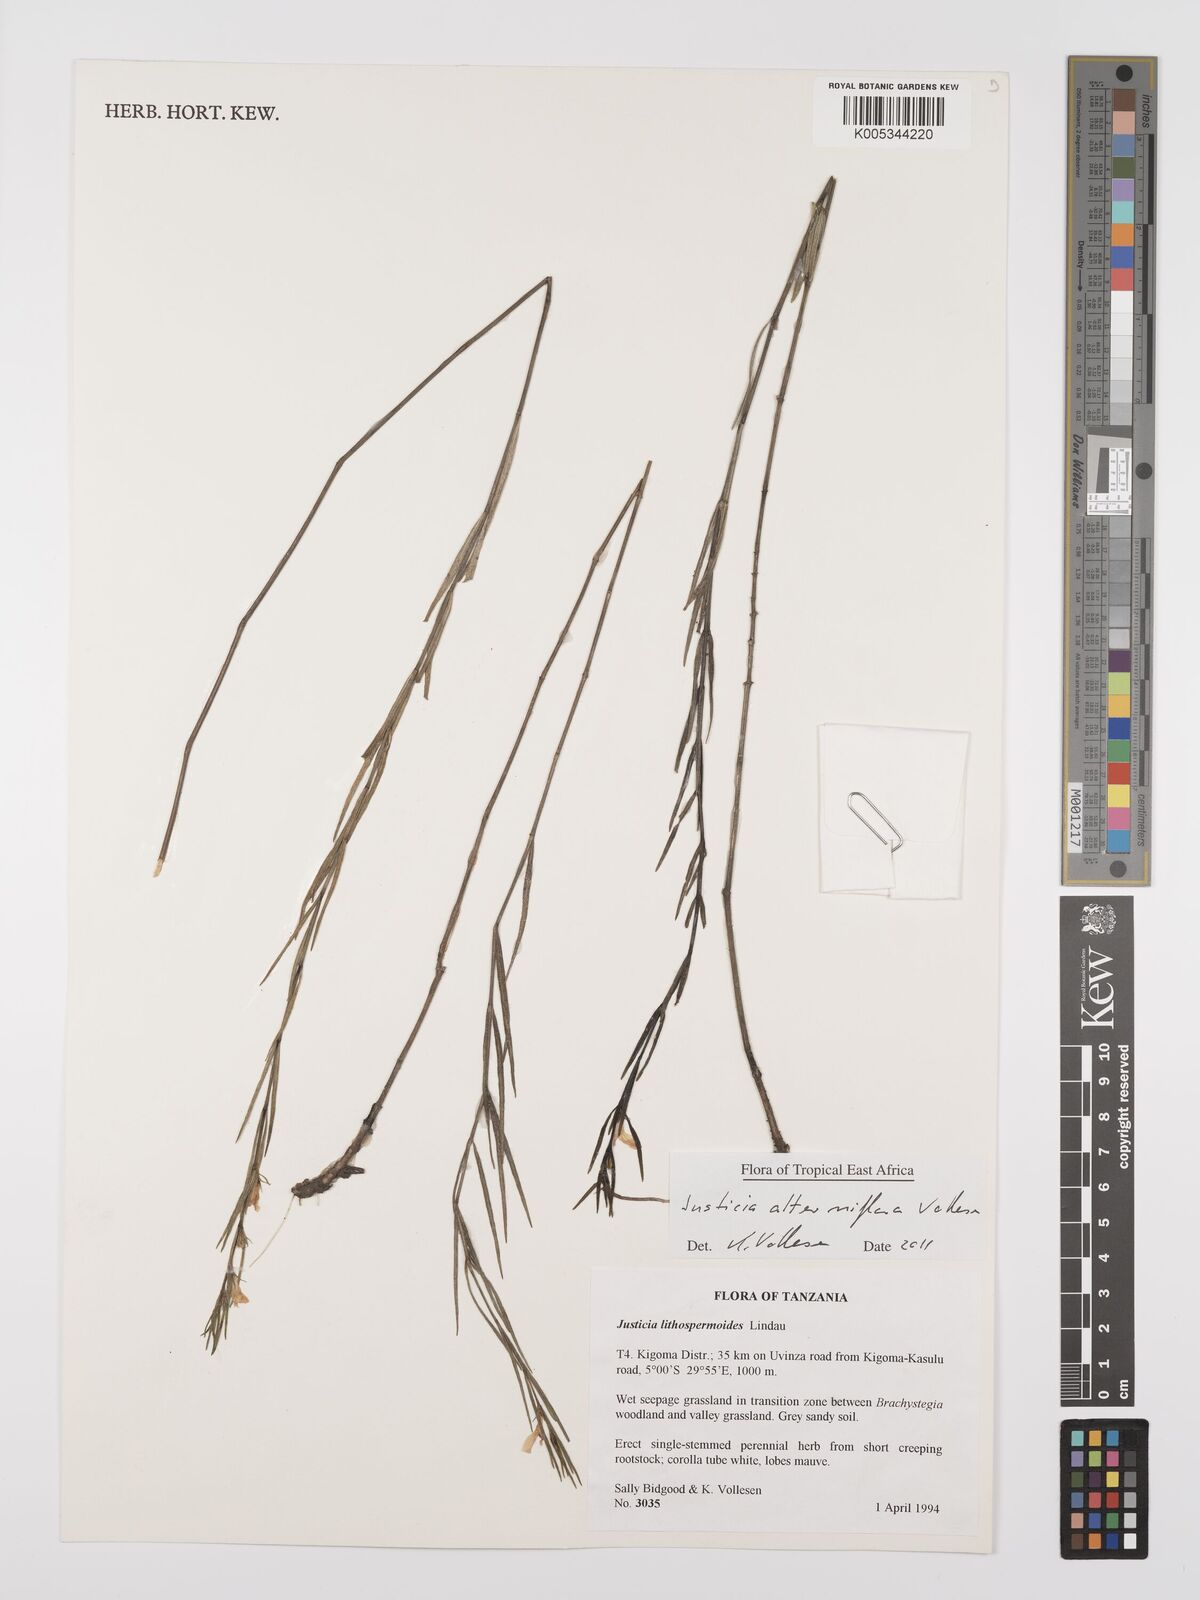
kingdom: Plantae
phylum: Tracheophyta
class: Magnoliopsida
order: Lamiales
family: Acanthaceae
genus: Justicia
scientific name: Justicia alterniflora
